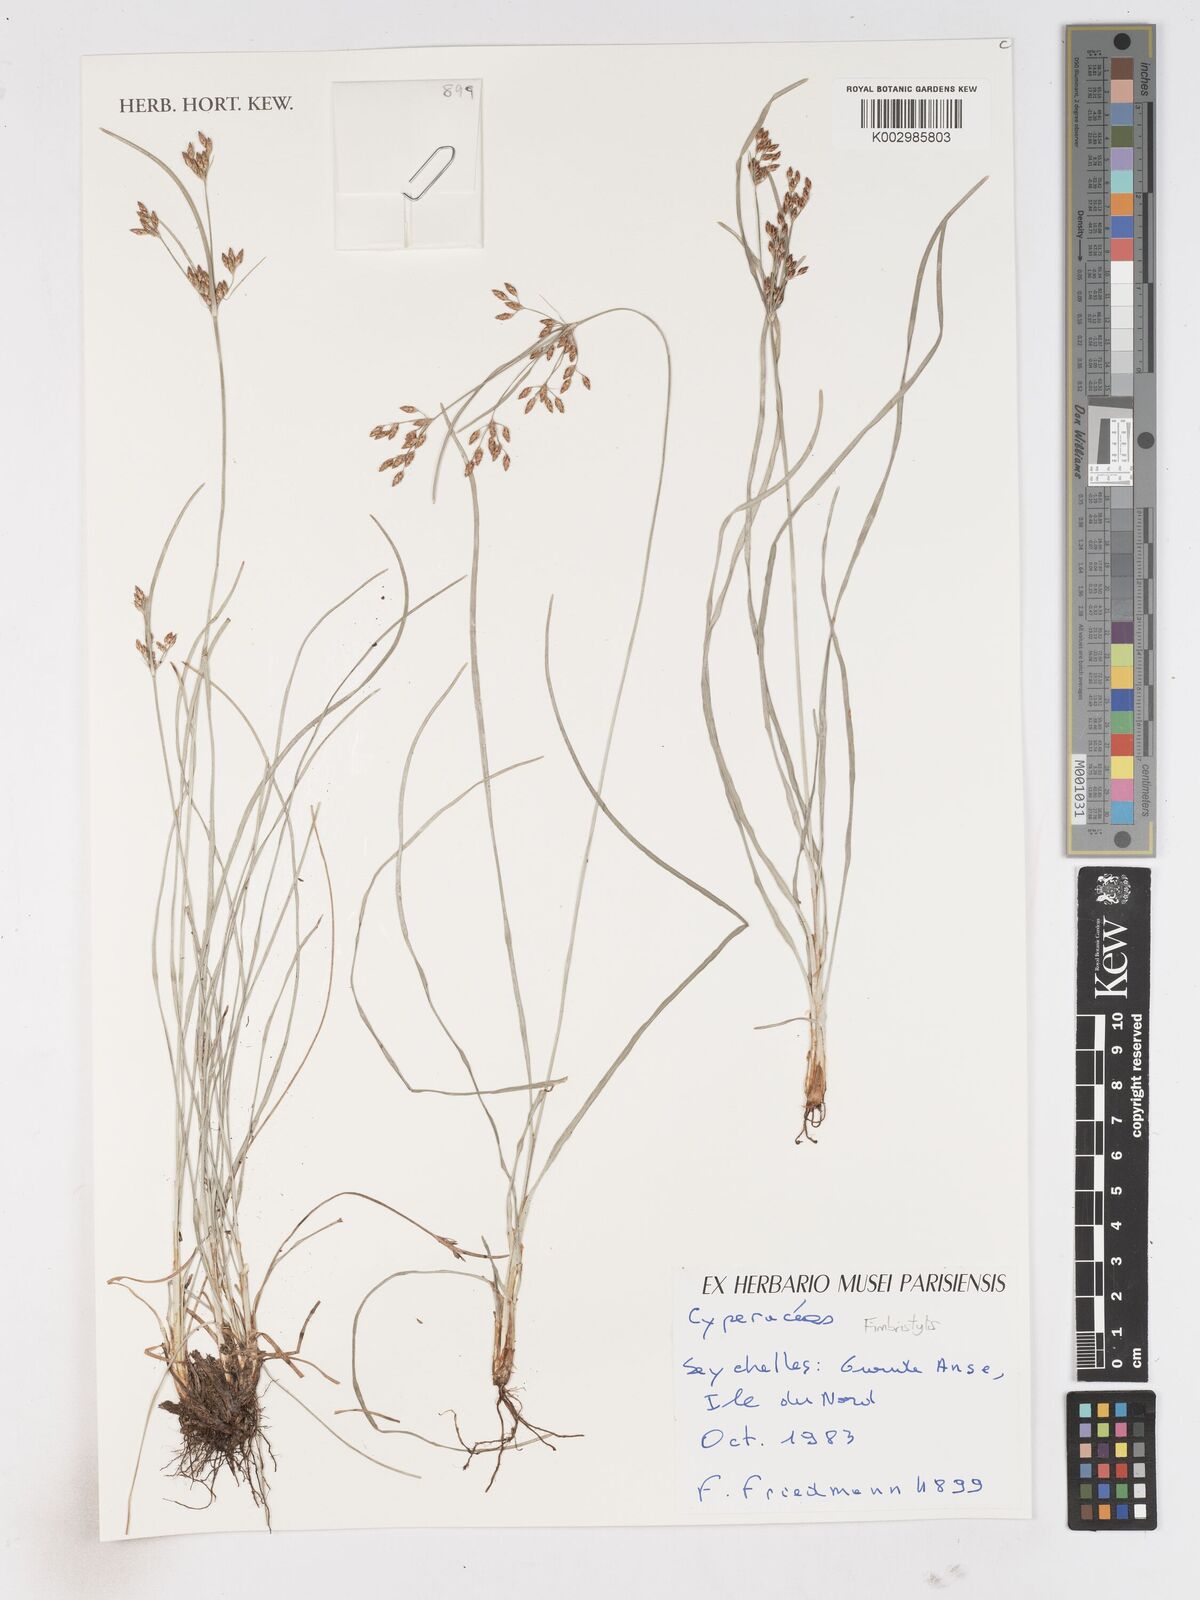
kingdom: Plantae
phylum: Tracheophyta
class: Liliopsida
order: Poales
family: Cyperaceae
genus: Fimbristylis
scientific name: Fimbristylis
